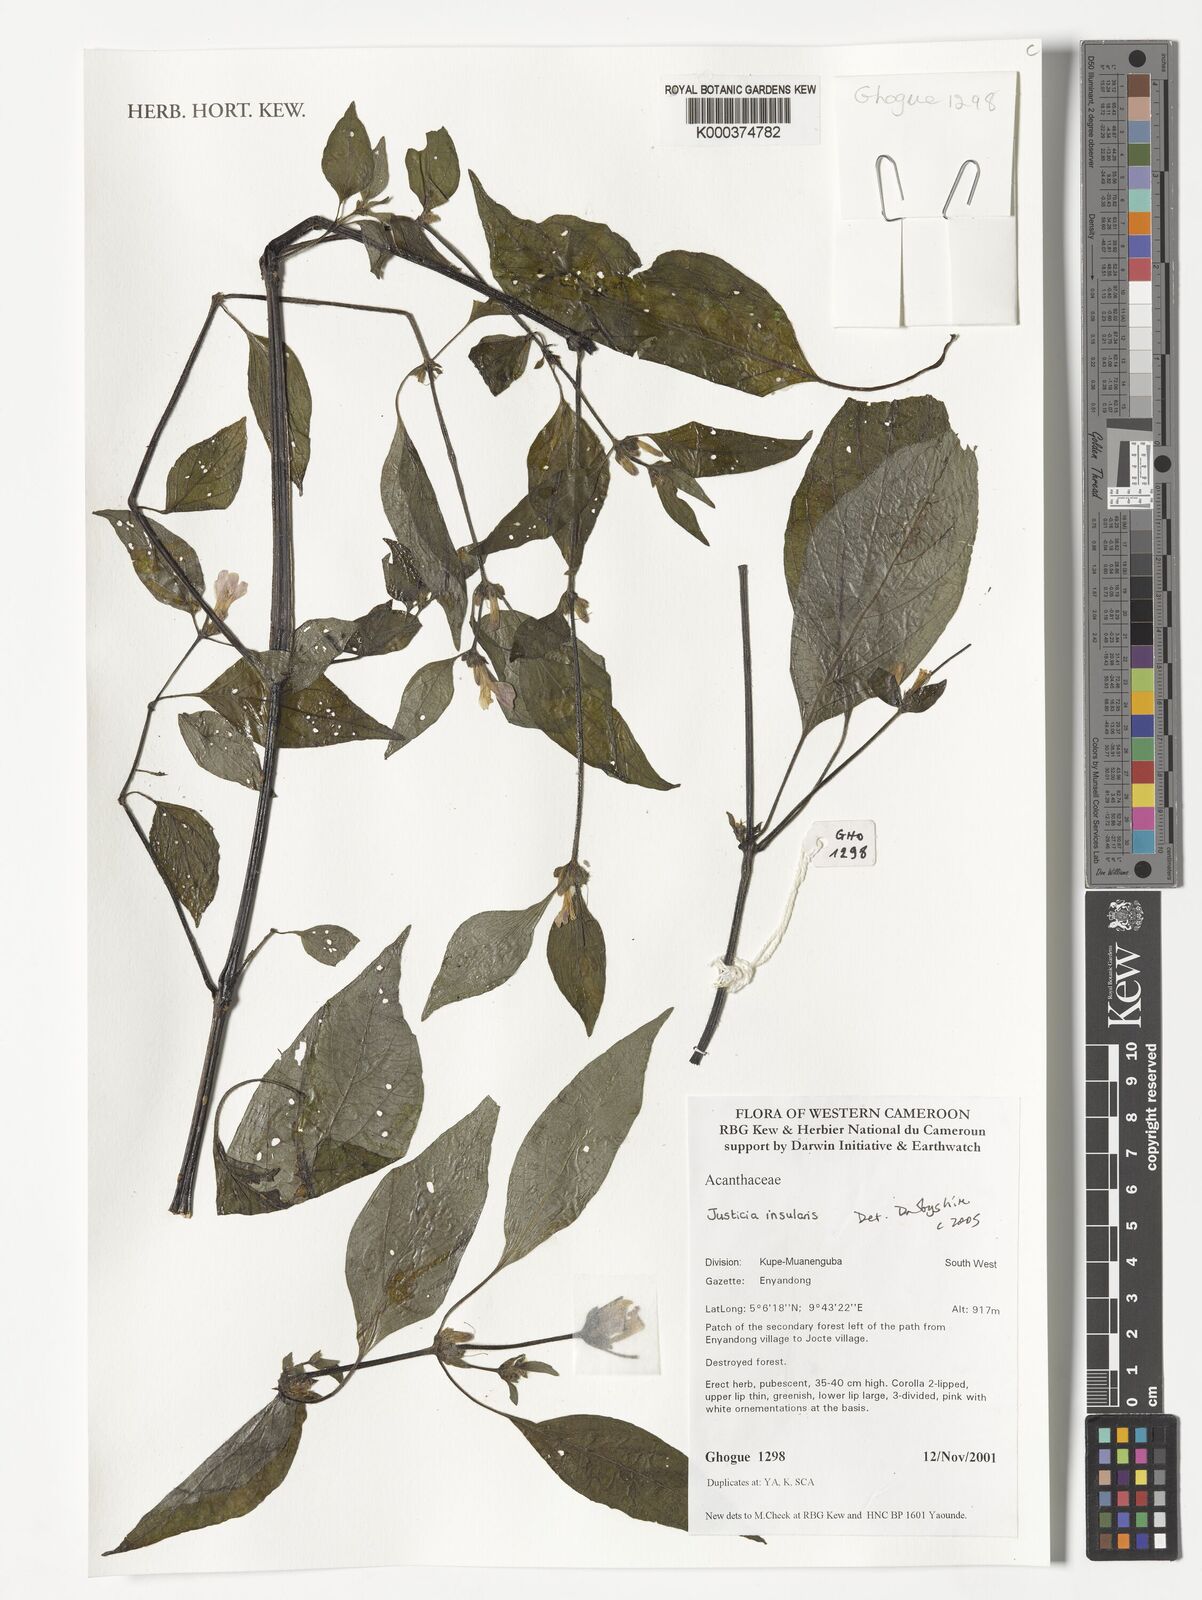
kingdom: Plantae
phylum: Tracheophyta
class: Magnoliopsida
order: Lamiales
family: Acanthaceae
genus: Justicia
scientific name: Justicia insularis
